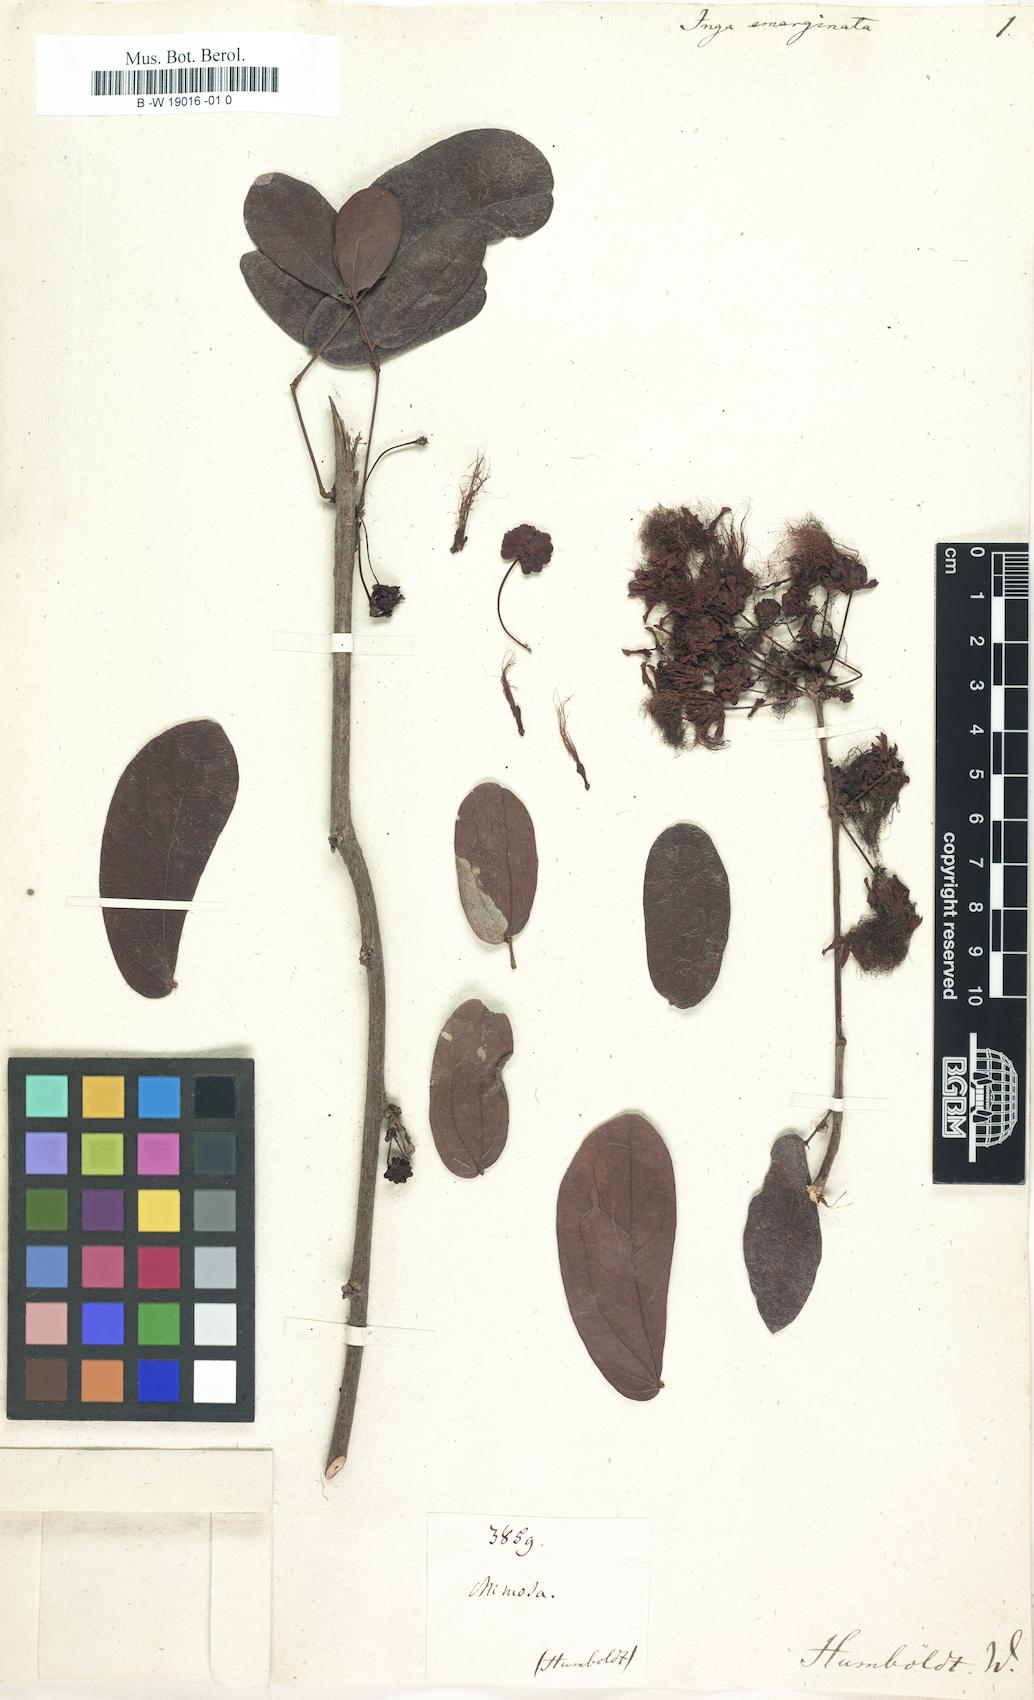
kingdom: Plantae
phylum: Tracheophyta
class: Magnoliopsida
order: Fabales
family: Fabaceae
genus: Calliandra
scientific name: Calliandra tergemina
